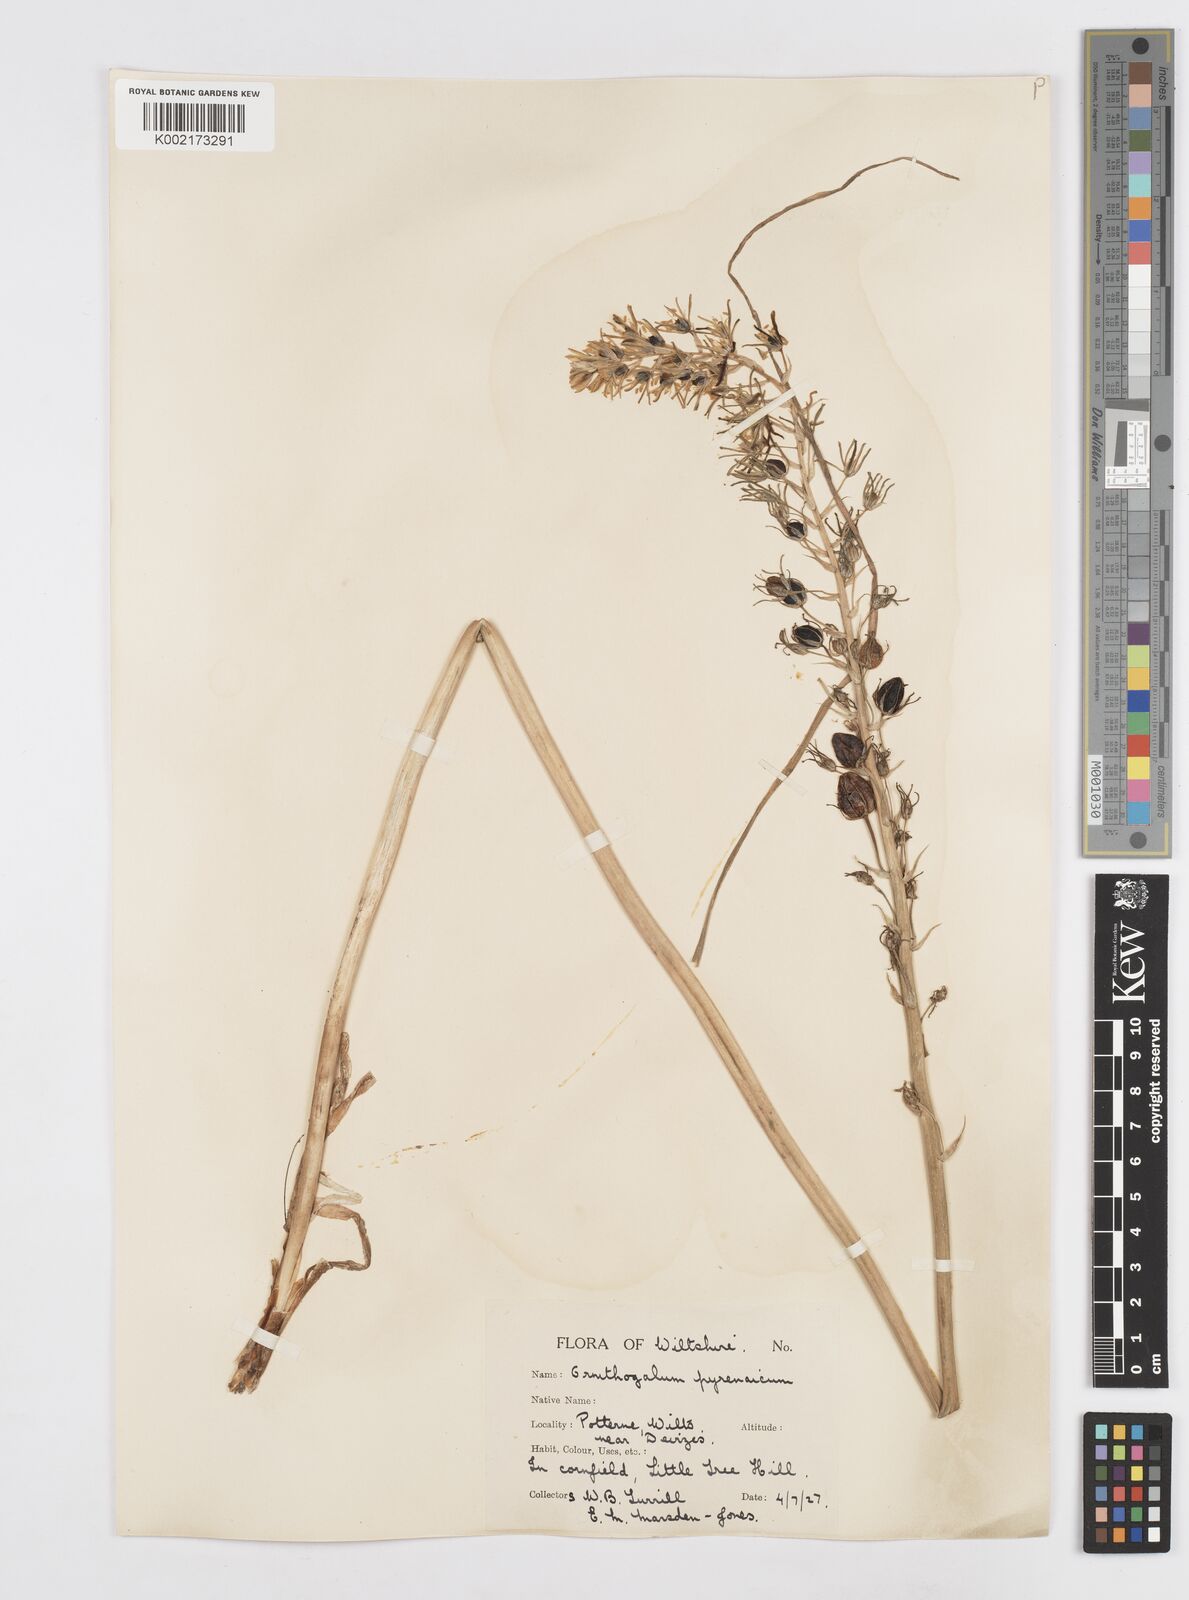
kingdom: Plantae
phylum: Tracheophyta
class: Liliopsida
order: Asparagales
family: Asparagaceae
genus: Ornithogalum
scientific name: Ornithogalum pyrenaicum
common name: Spiked star-of-bethlehem
